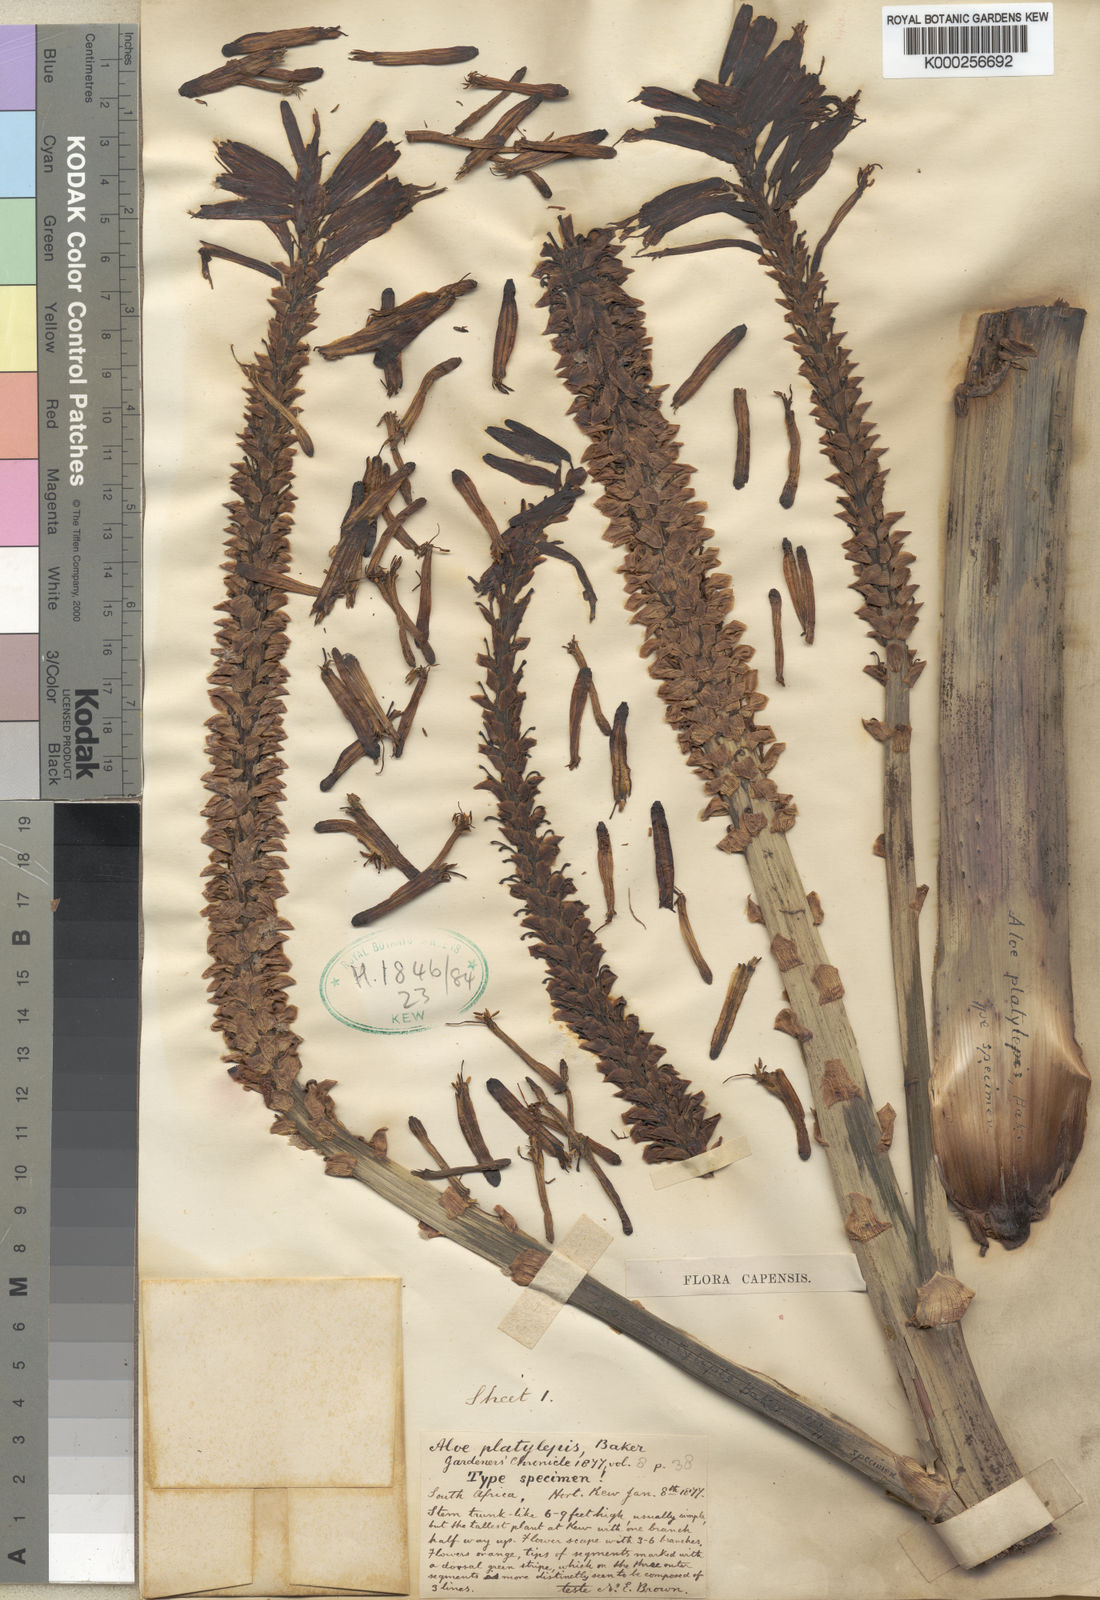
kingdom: Plantae
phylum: Tracheophyta
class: Liliopsida
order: Asparagales
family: Asphodelaceae
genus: Aloe
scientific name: Aloe hexapetala
